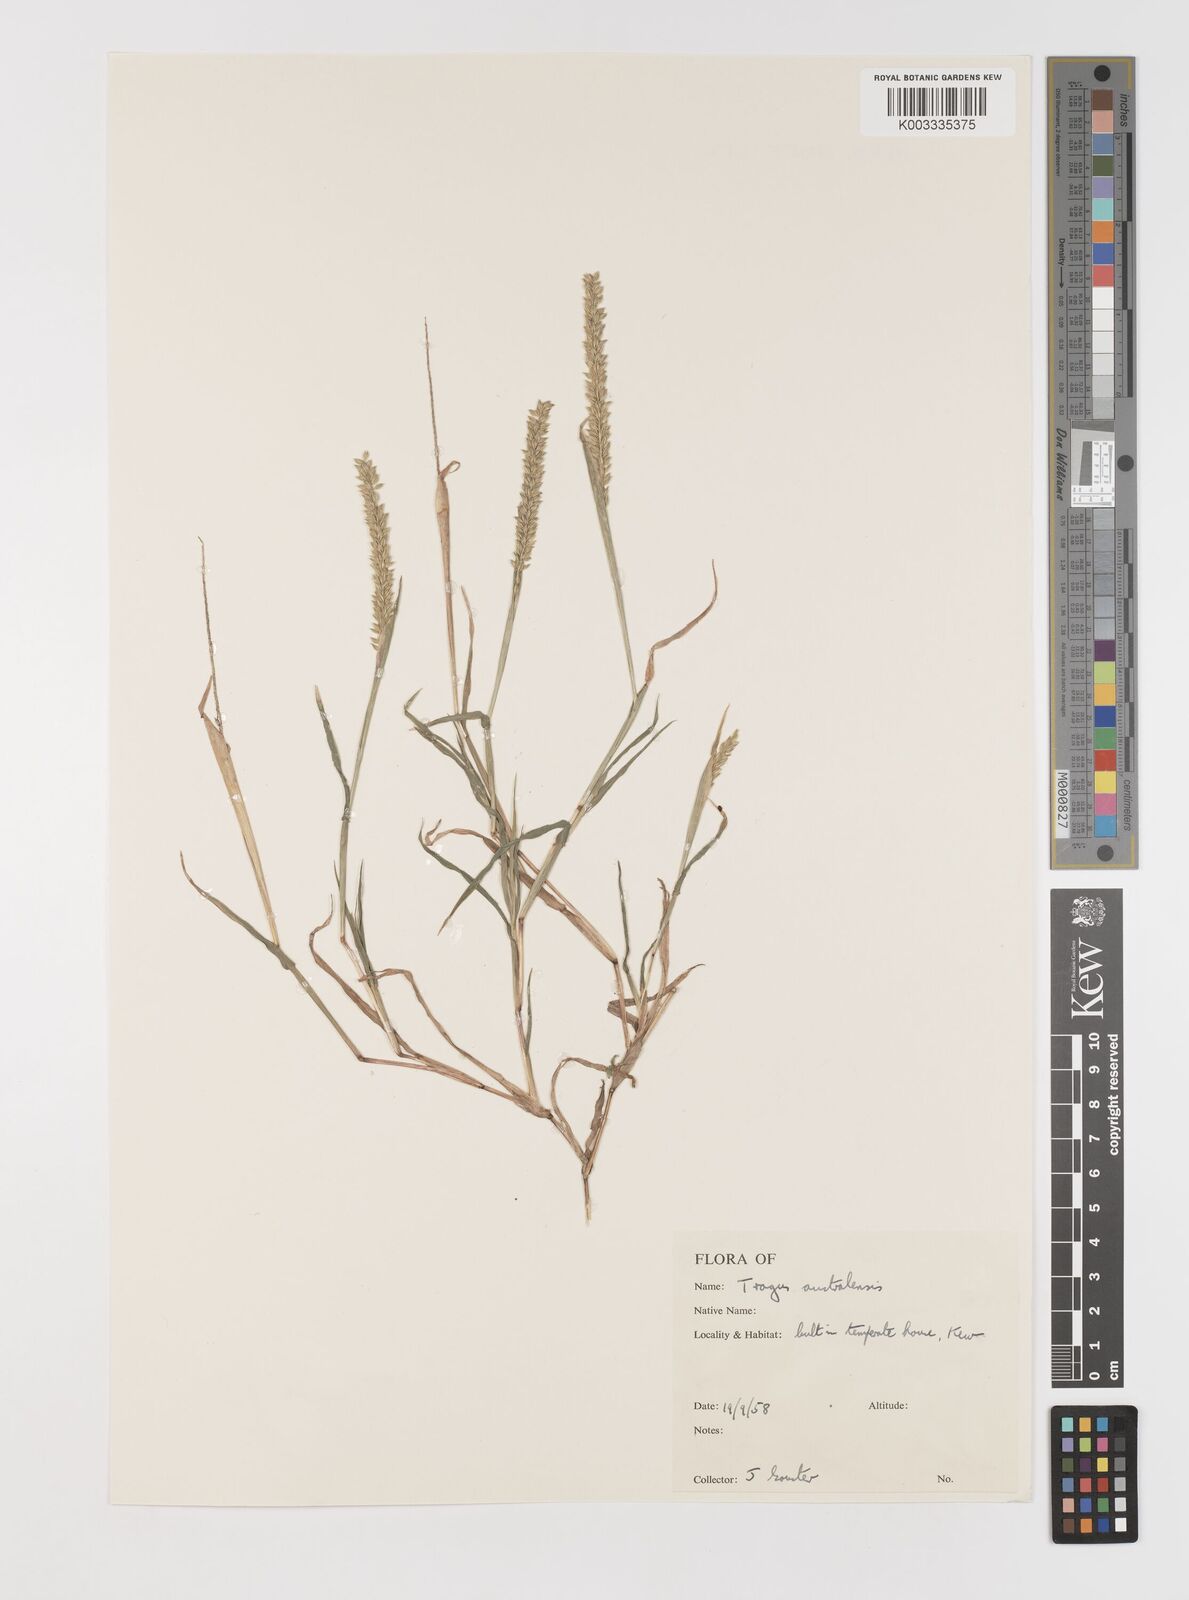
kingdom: Plantae
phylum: Tracheophyta
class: Liliopsida
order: Poales
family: Poaceae
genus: Tragus
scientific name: Tragus australianus
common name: Australian bur-grass
